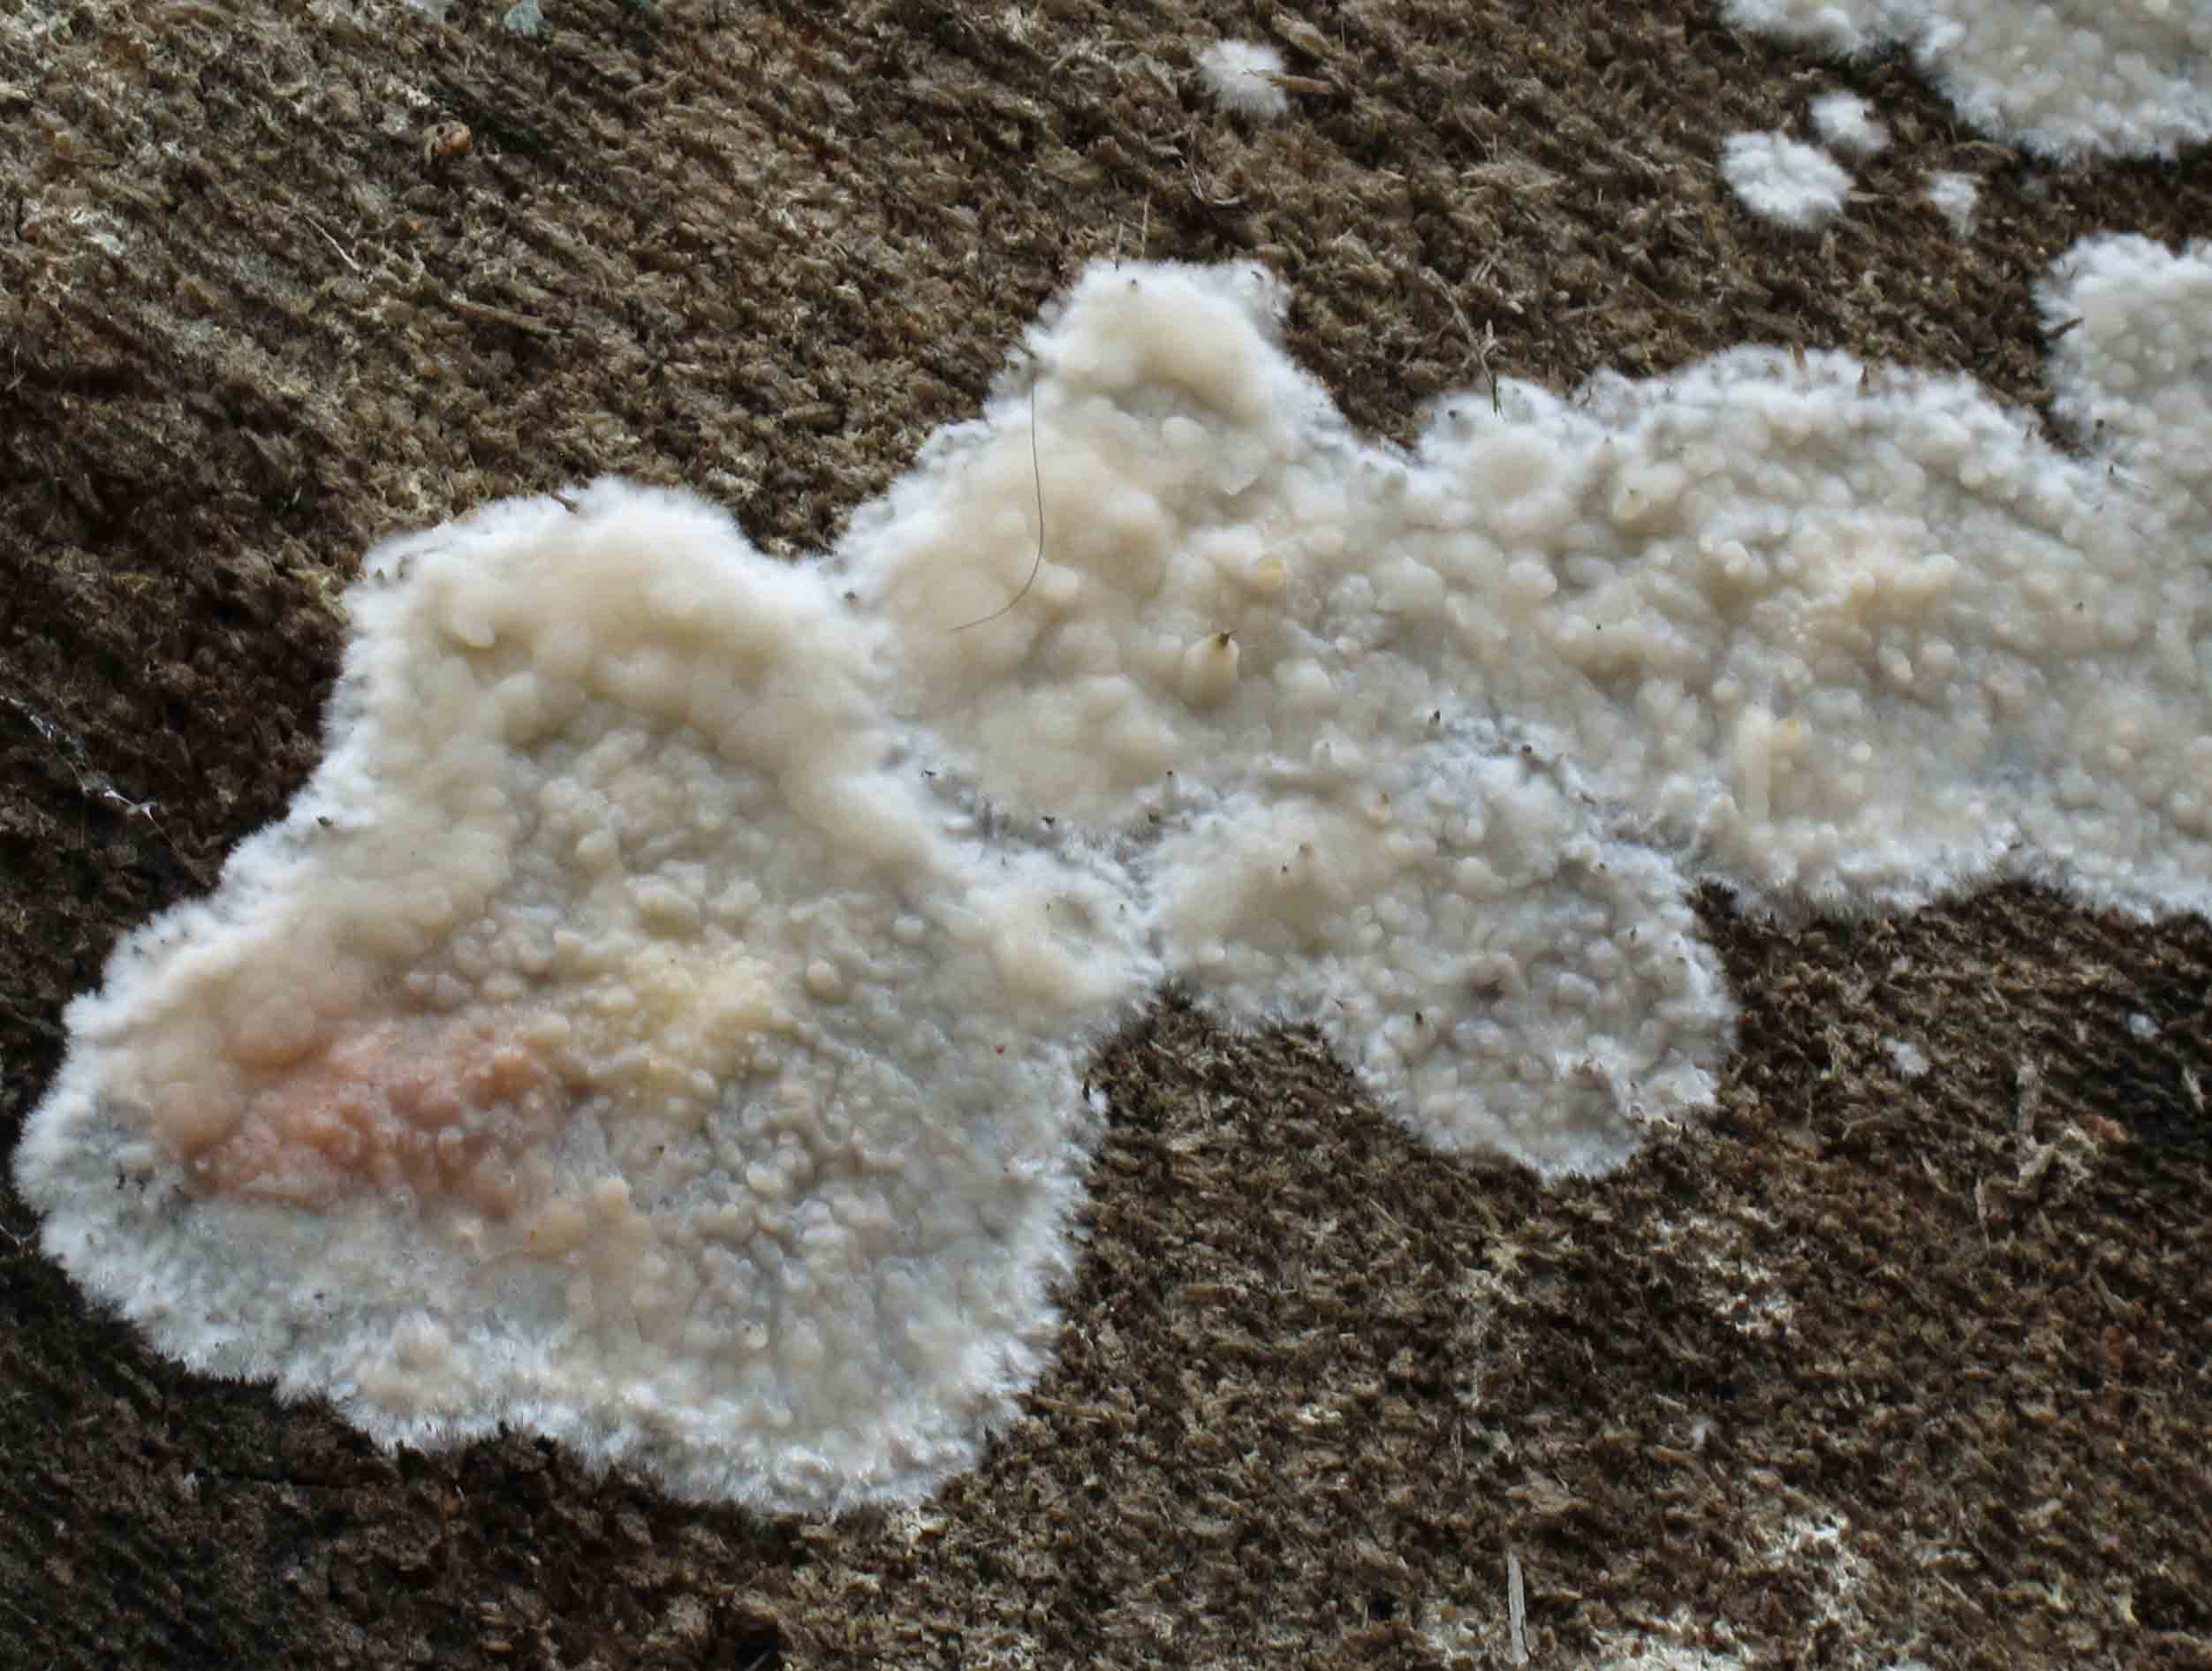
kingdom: Fungi
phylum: Basidiomycota
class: Agaricomycetes
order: Polyporales
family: Phanerochaetaceae
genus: Phlebiopsis
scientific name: Phlebiopsis gigantea
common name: kæmpebarksvamp
